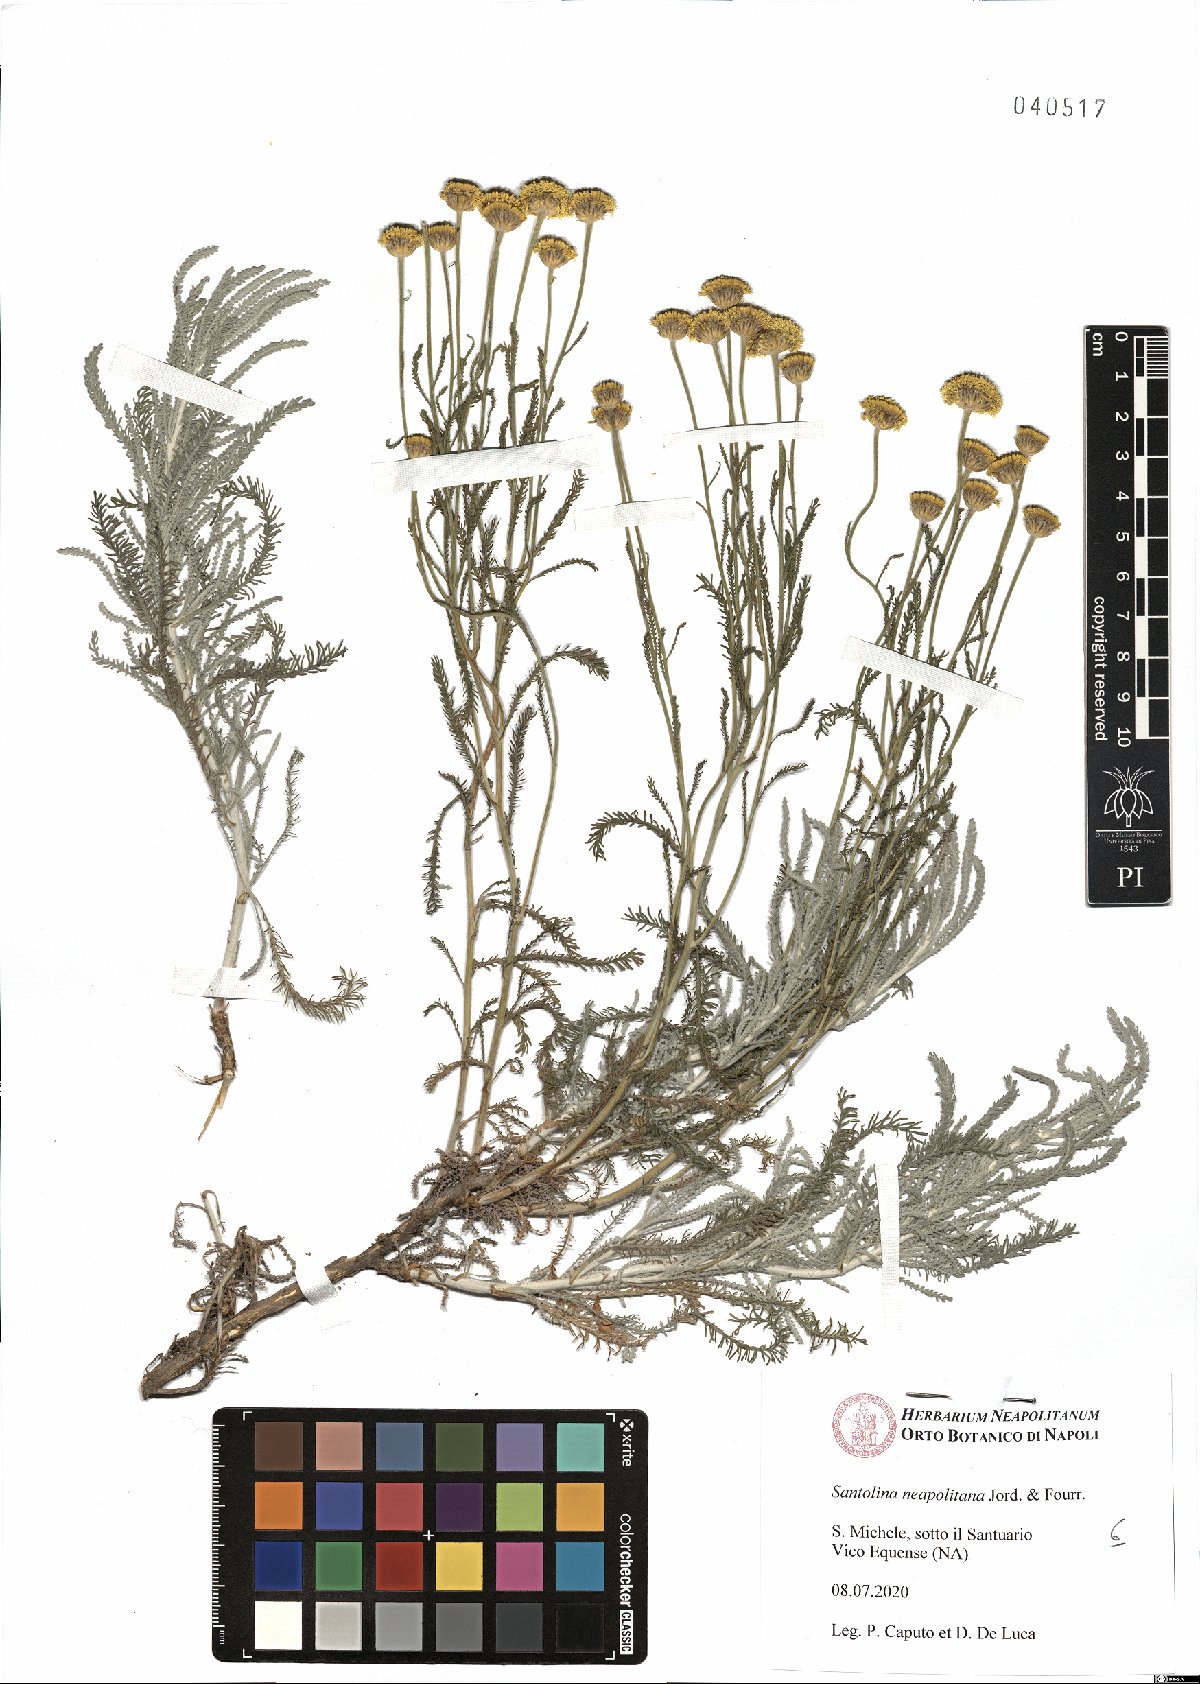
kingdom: Plantae
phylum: Tracheophyta
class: Magnoliopsida
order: Asterales
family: Asteraceae
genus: Santolina
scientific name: Santolina neapolitana
